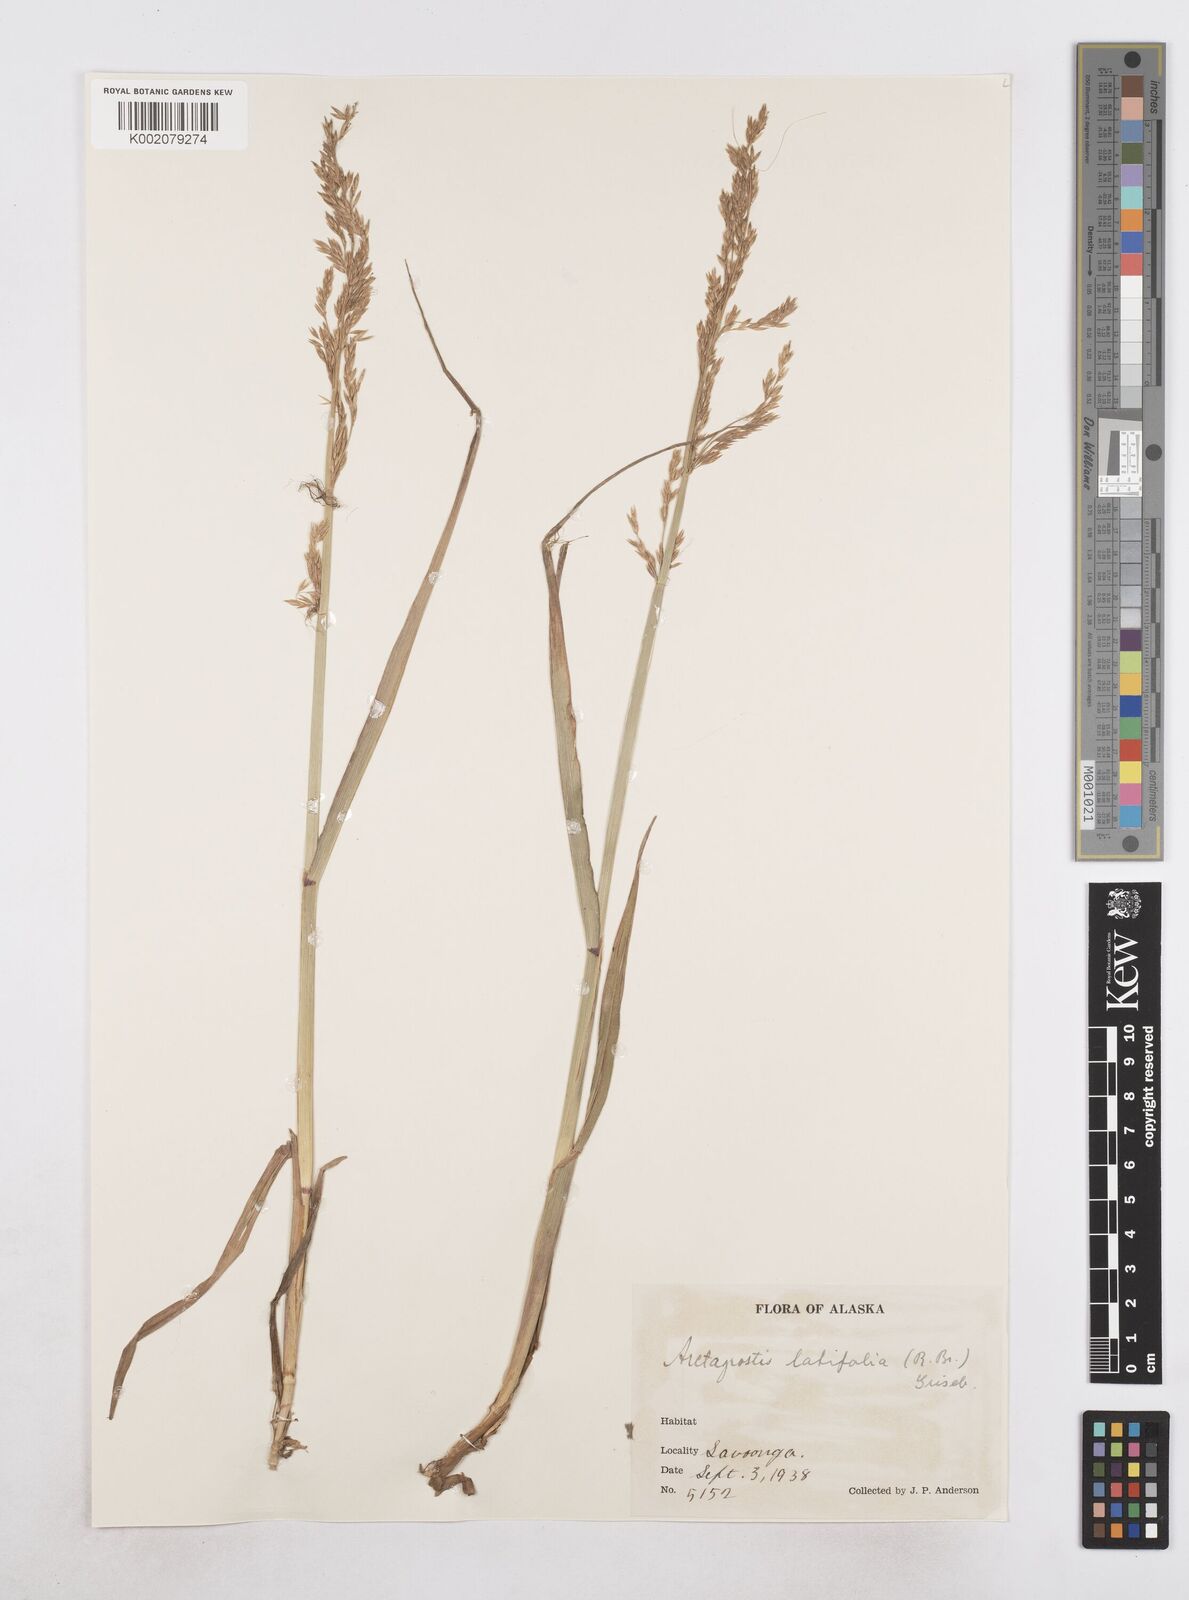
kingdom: Plantae
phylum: Tracheophyta
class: Liliopsida
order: Poales
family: Poaceae
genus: Arctagrostis
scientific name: Arctagrostis latifolia
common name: Arctic grass
